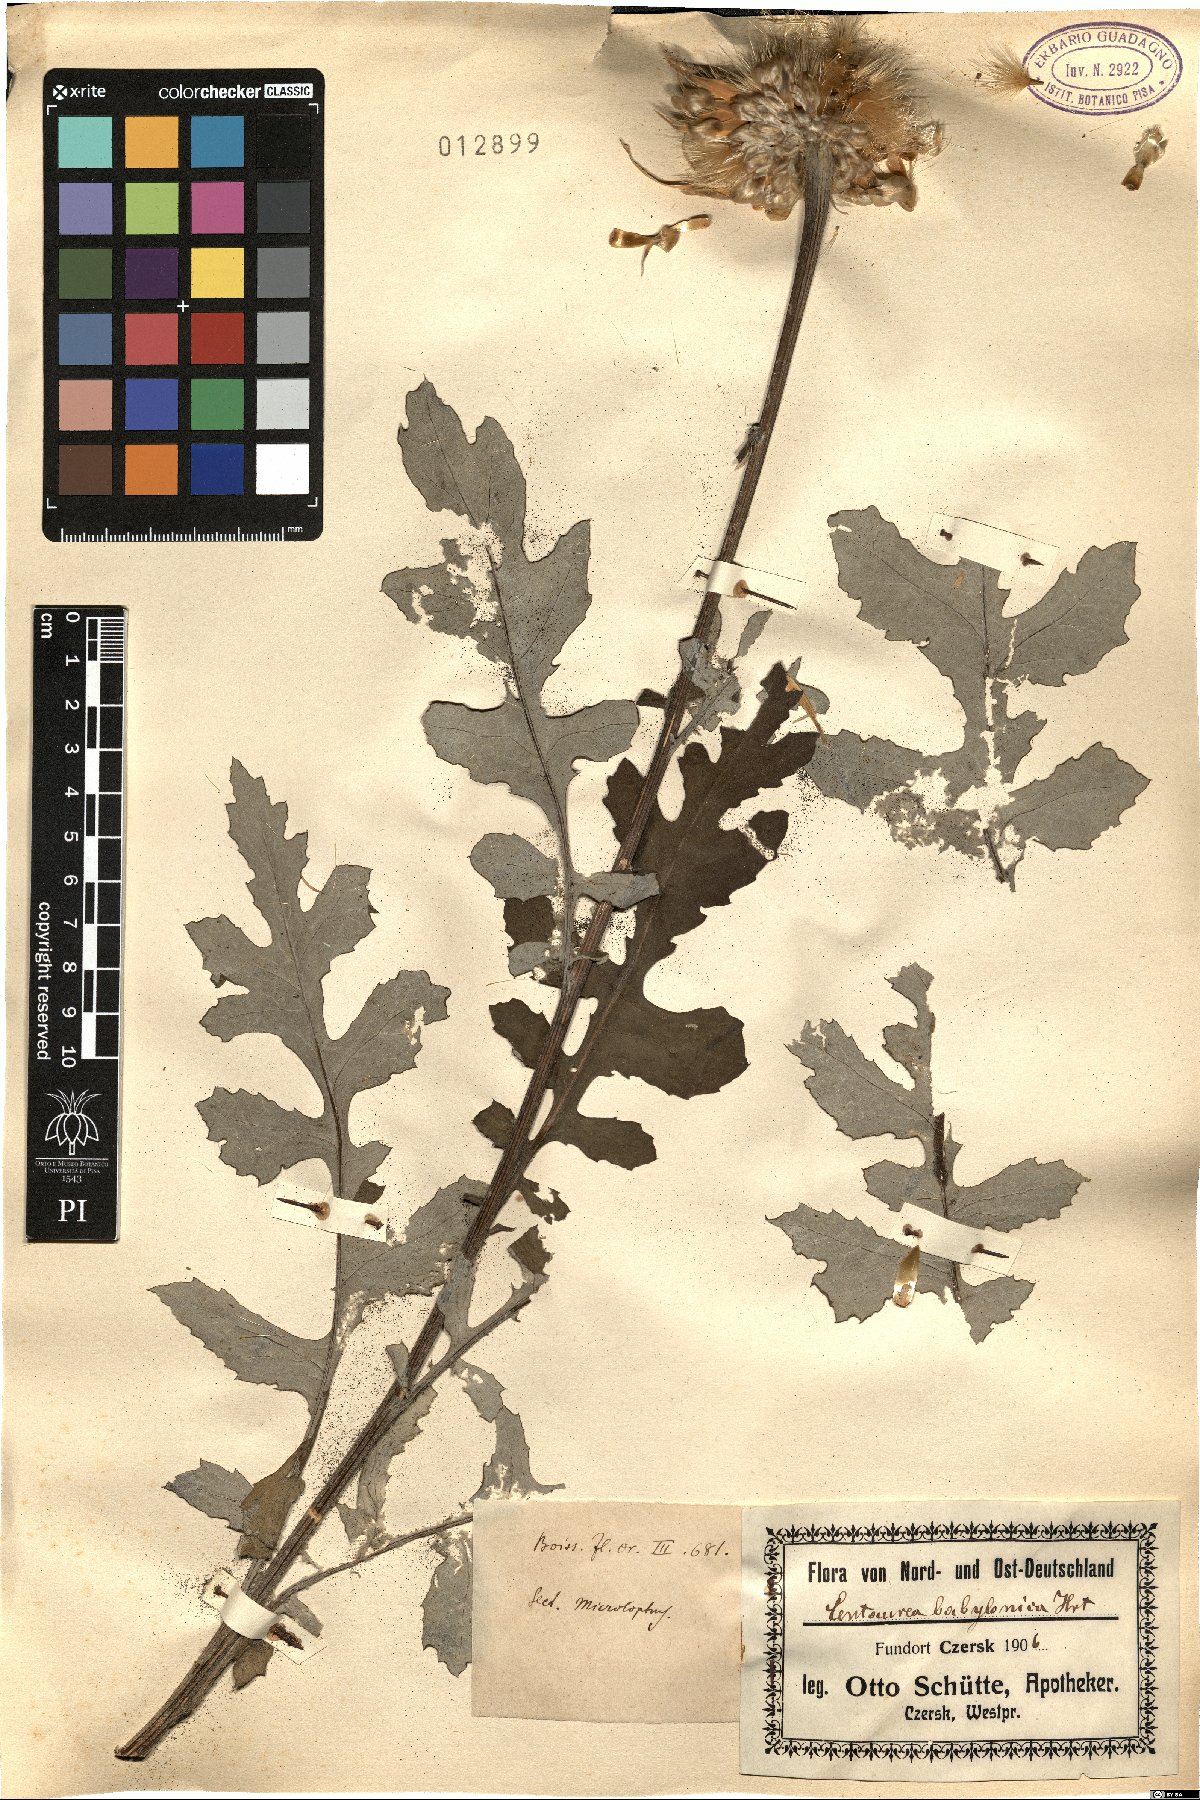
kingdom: Plantae
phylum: Tracheophyta
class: Magnoliopsida
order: Asterales
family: Asteraceae
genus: Centaurea
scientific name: Centaurea babylonica
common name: Syrian knapweed
